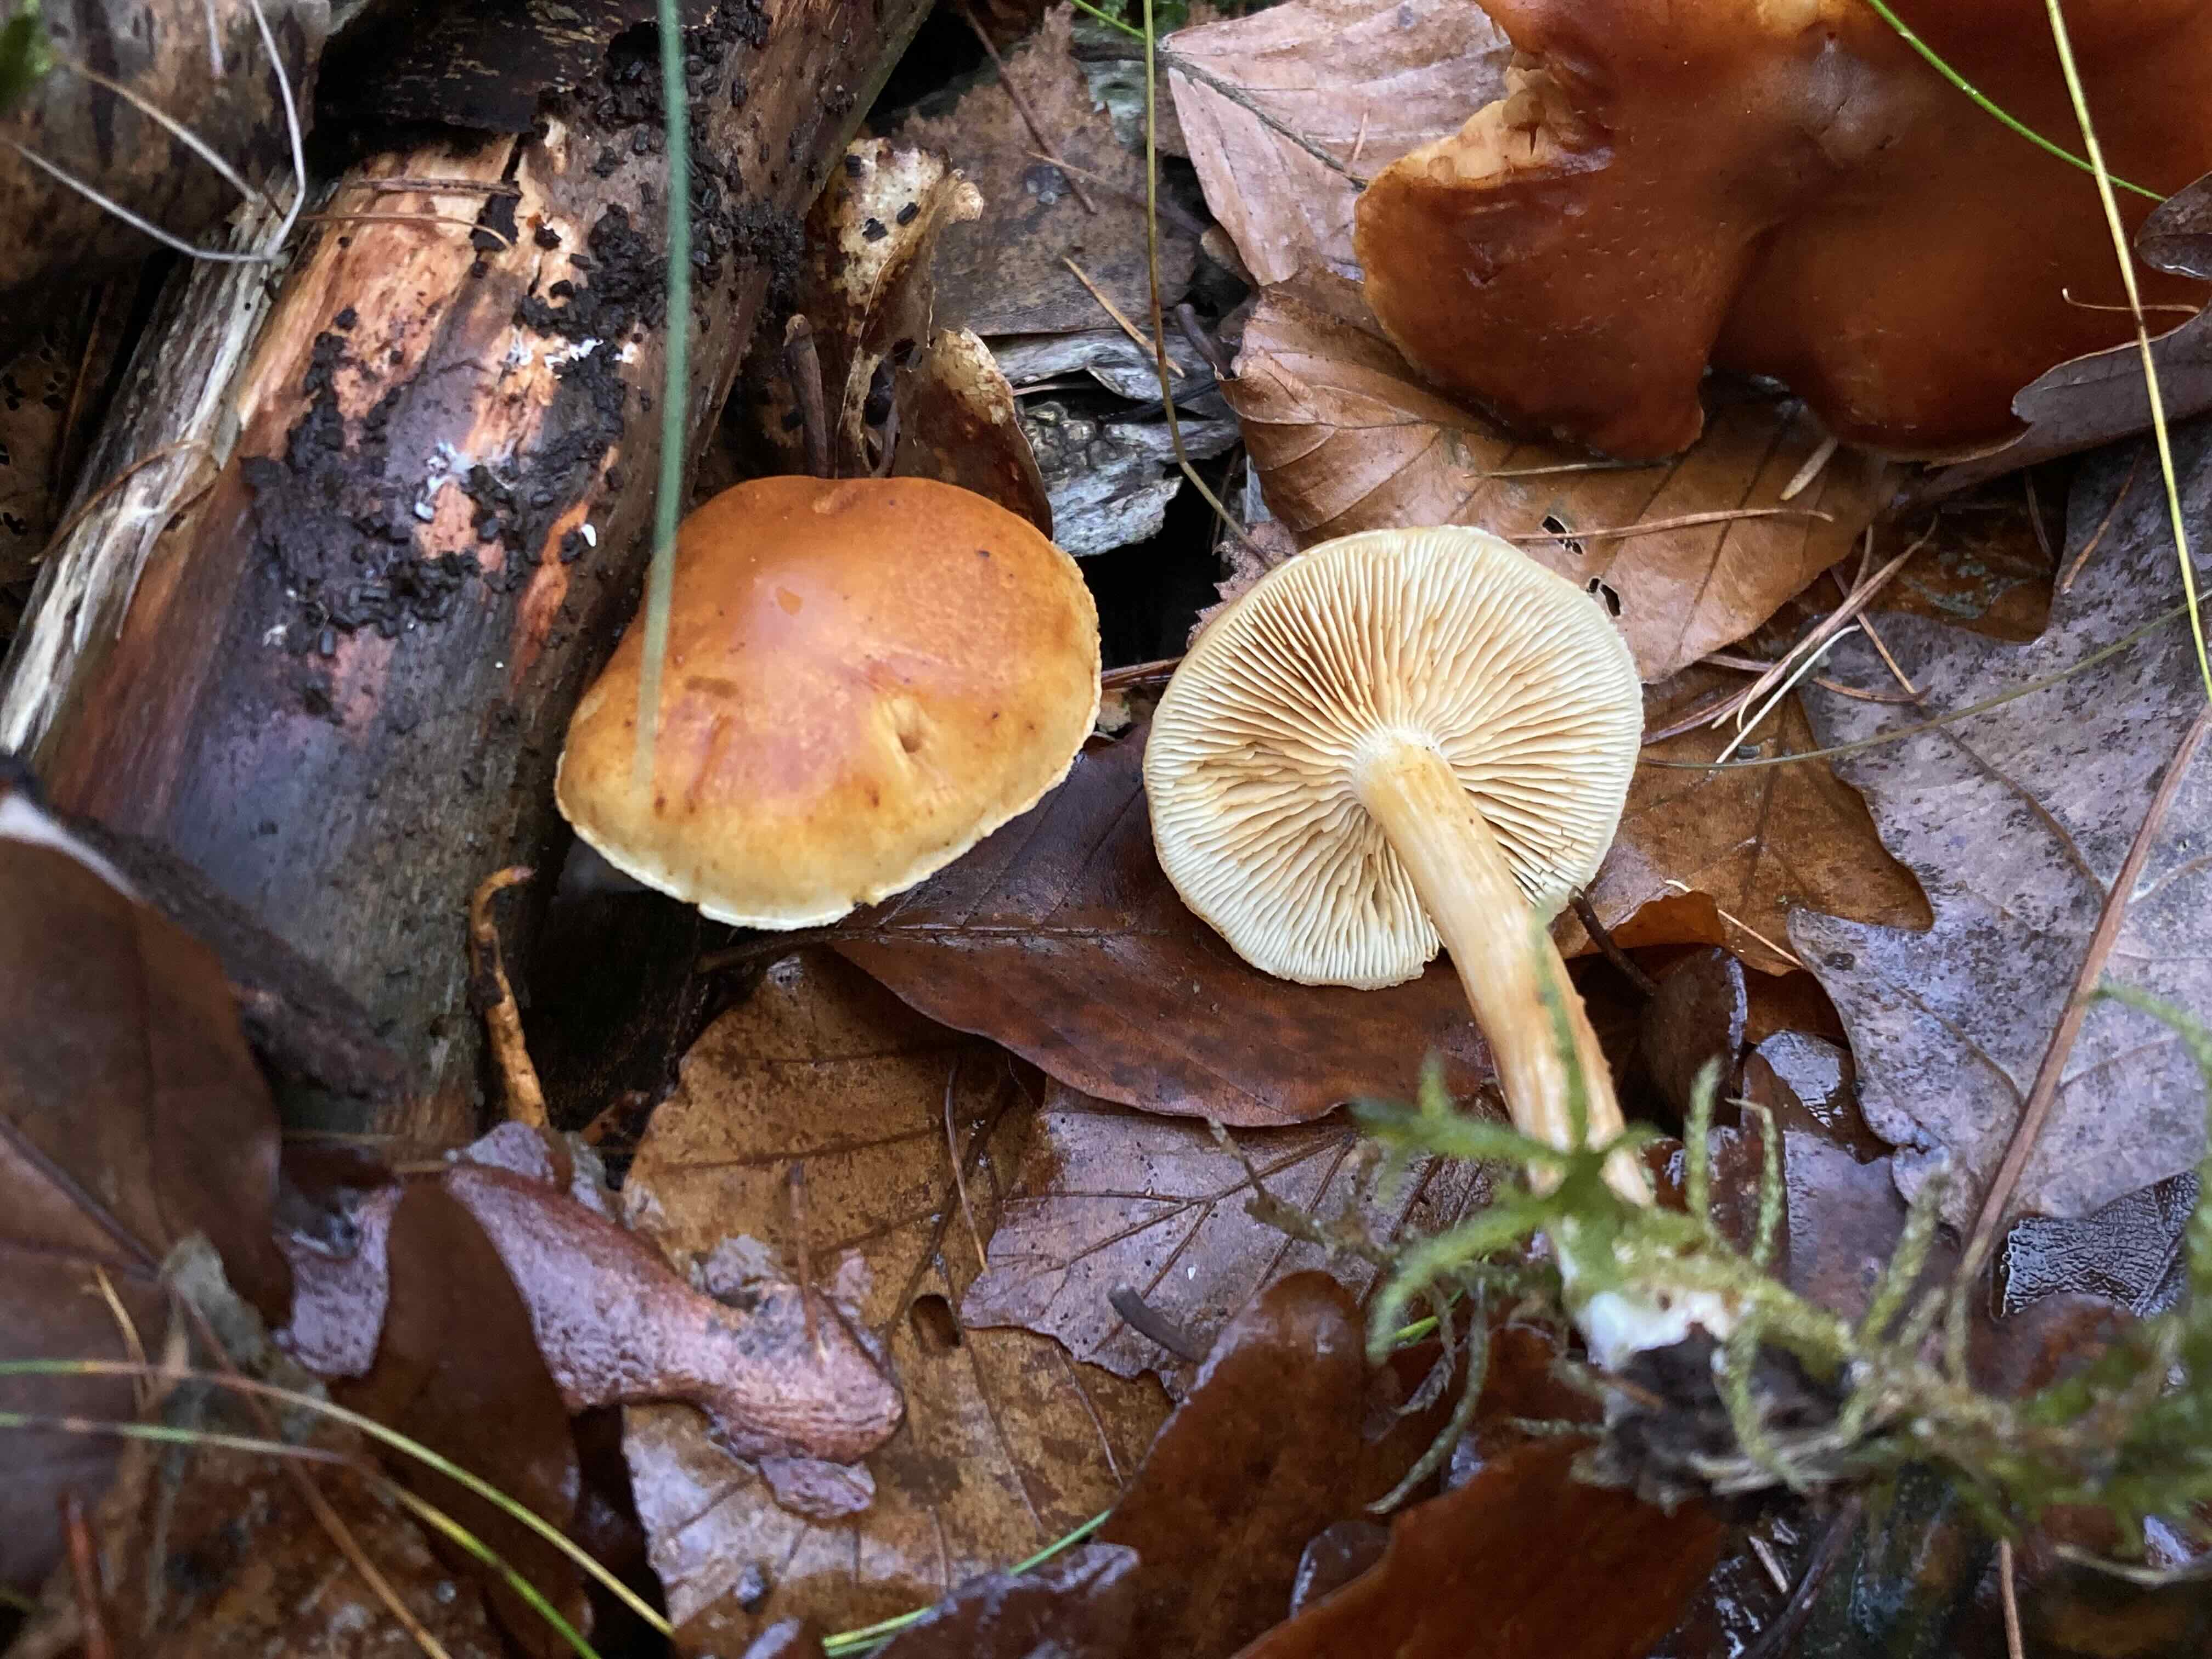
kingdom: Fungi
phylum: Basidiomycota
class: Agaricomycetes
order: Agaricales
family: Hymenogastraceae
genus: Gymnopilus
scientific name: Gymnopilus penetrans
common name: plettet flammehat
